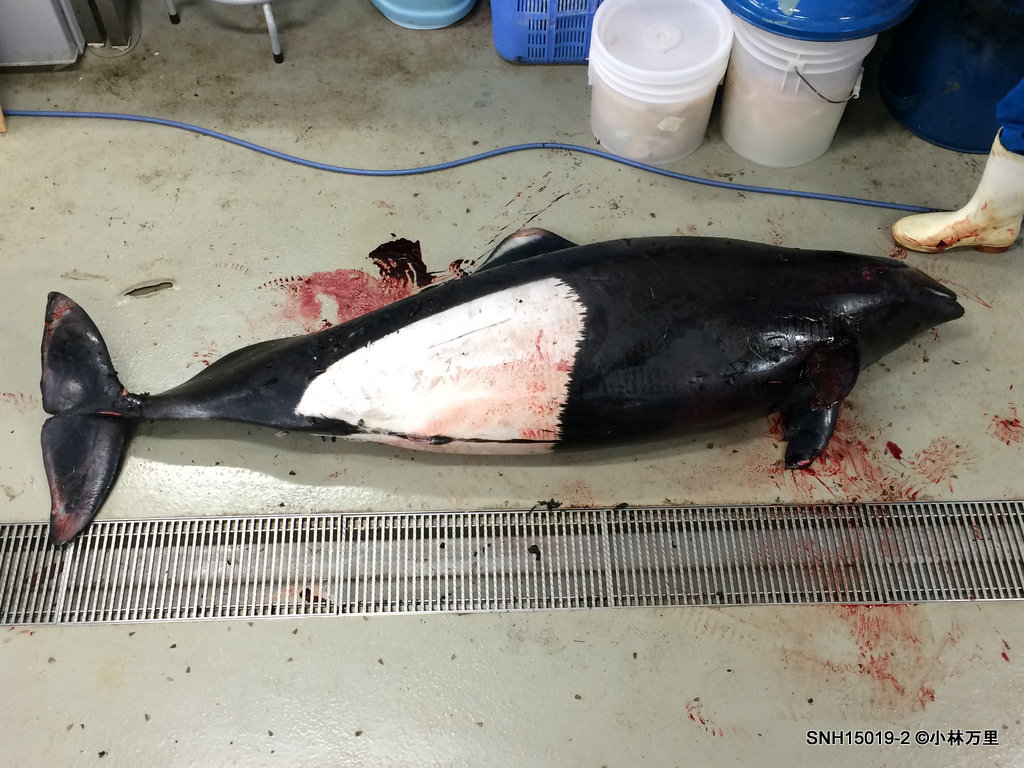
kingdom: Animalia
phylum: Chordata
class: Mammalia
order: Cetacea
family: Phocoenidae
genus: Phocoenoides
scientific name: Phocoenoides dalli
